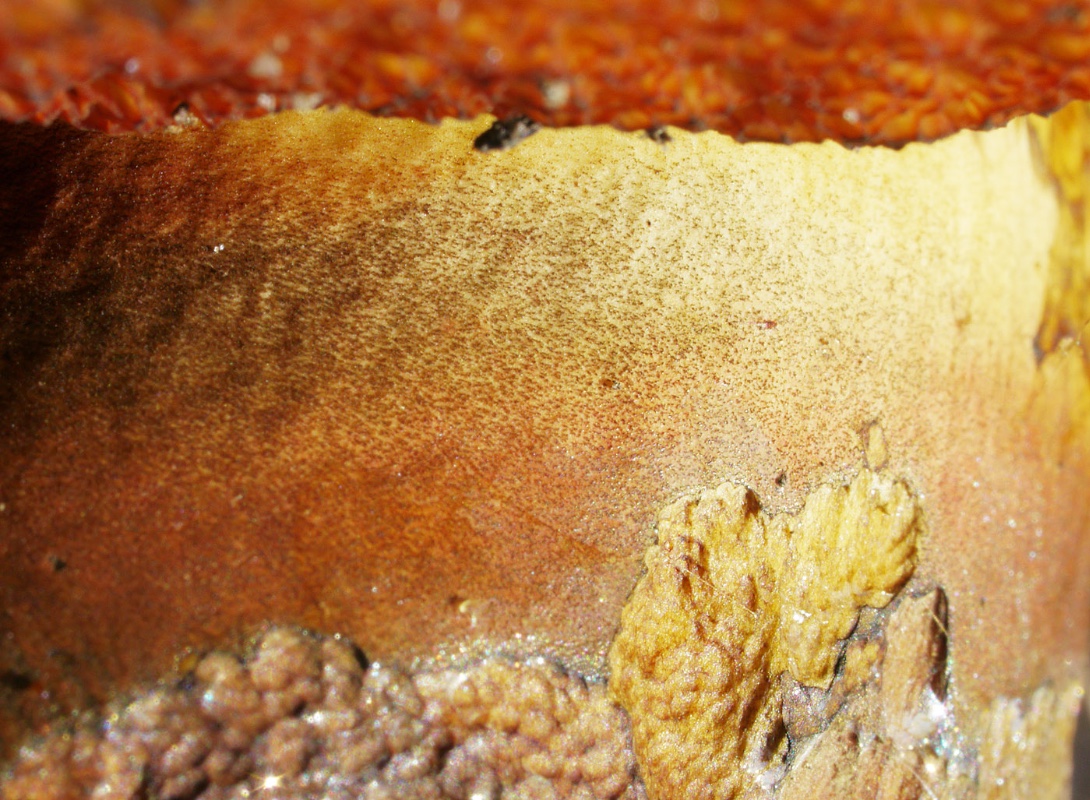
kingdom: Fungi
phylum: Basidiomycota
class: Agaricomycetes
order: Boletales
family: Boletaceae
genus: Neoboletus
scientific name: Neoboletus xanthopus
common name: finprikket indigorørhat
